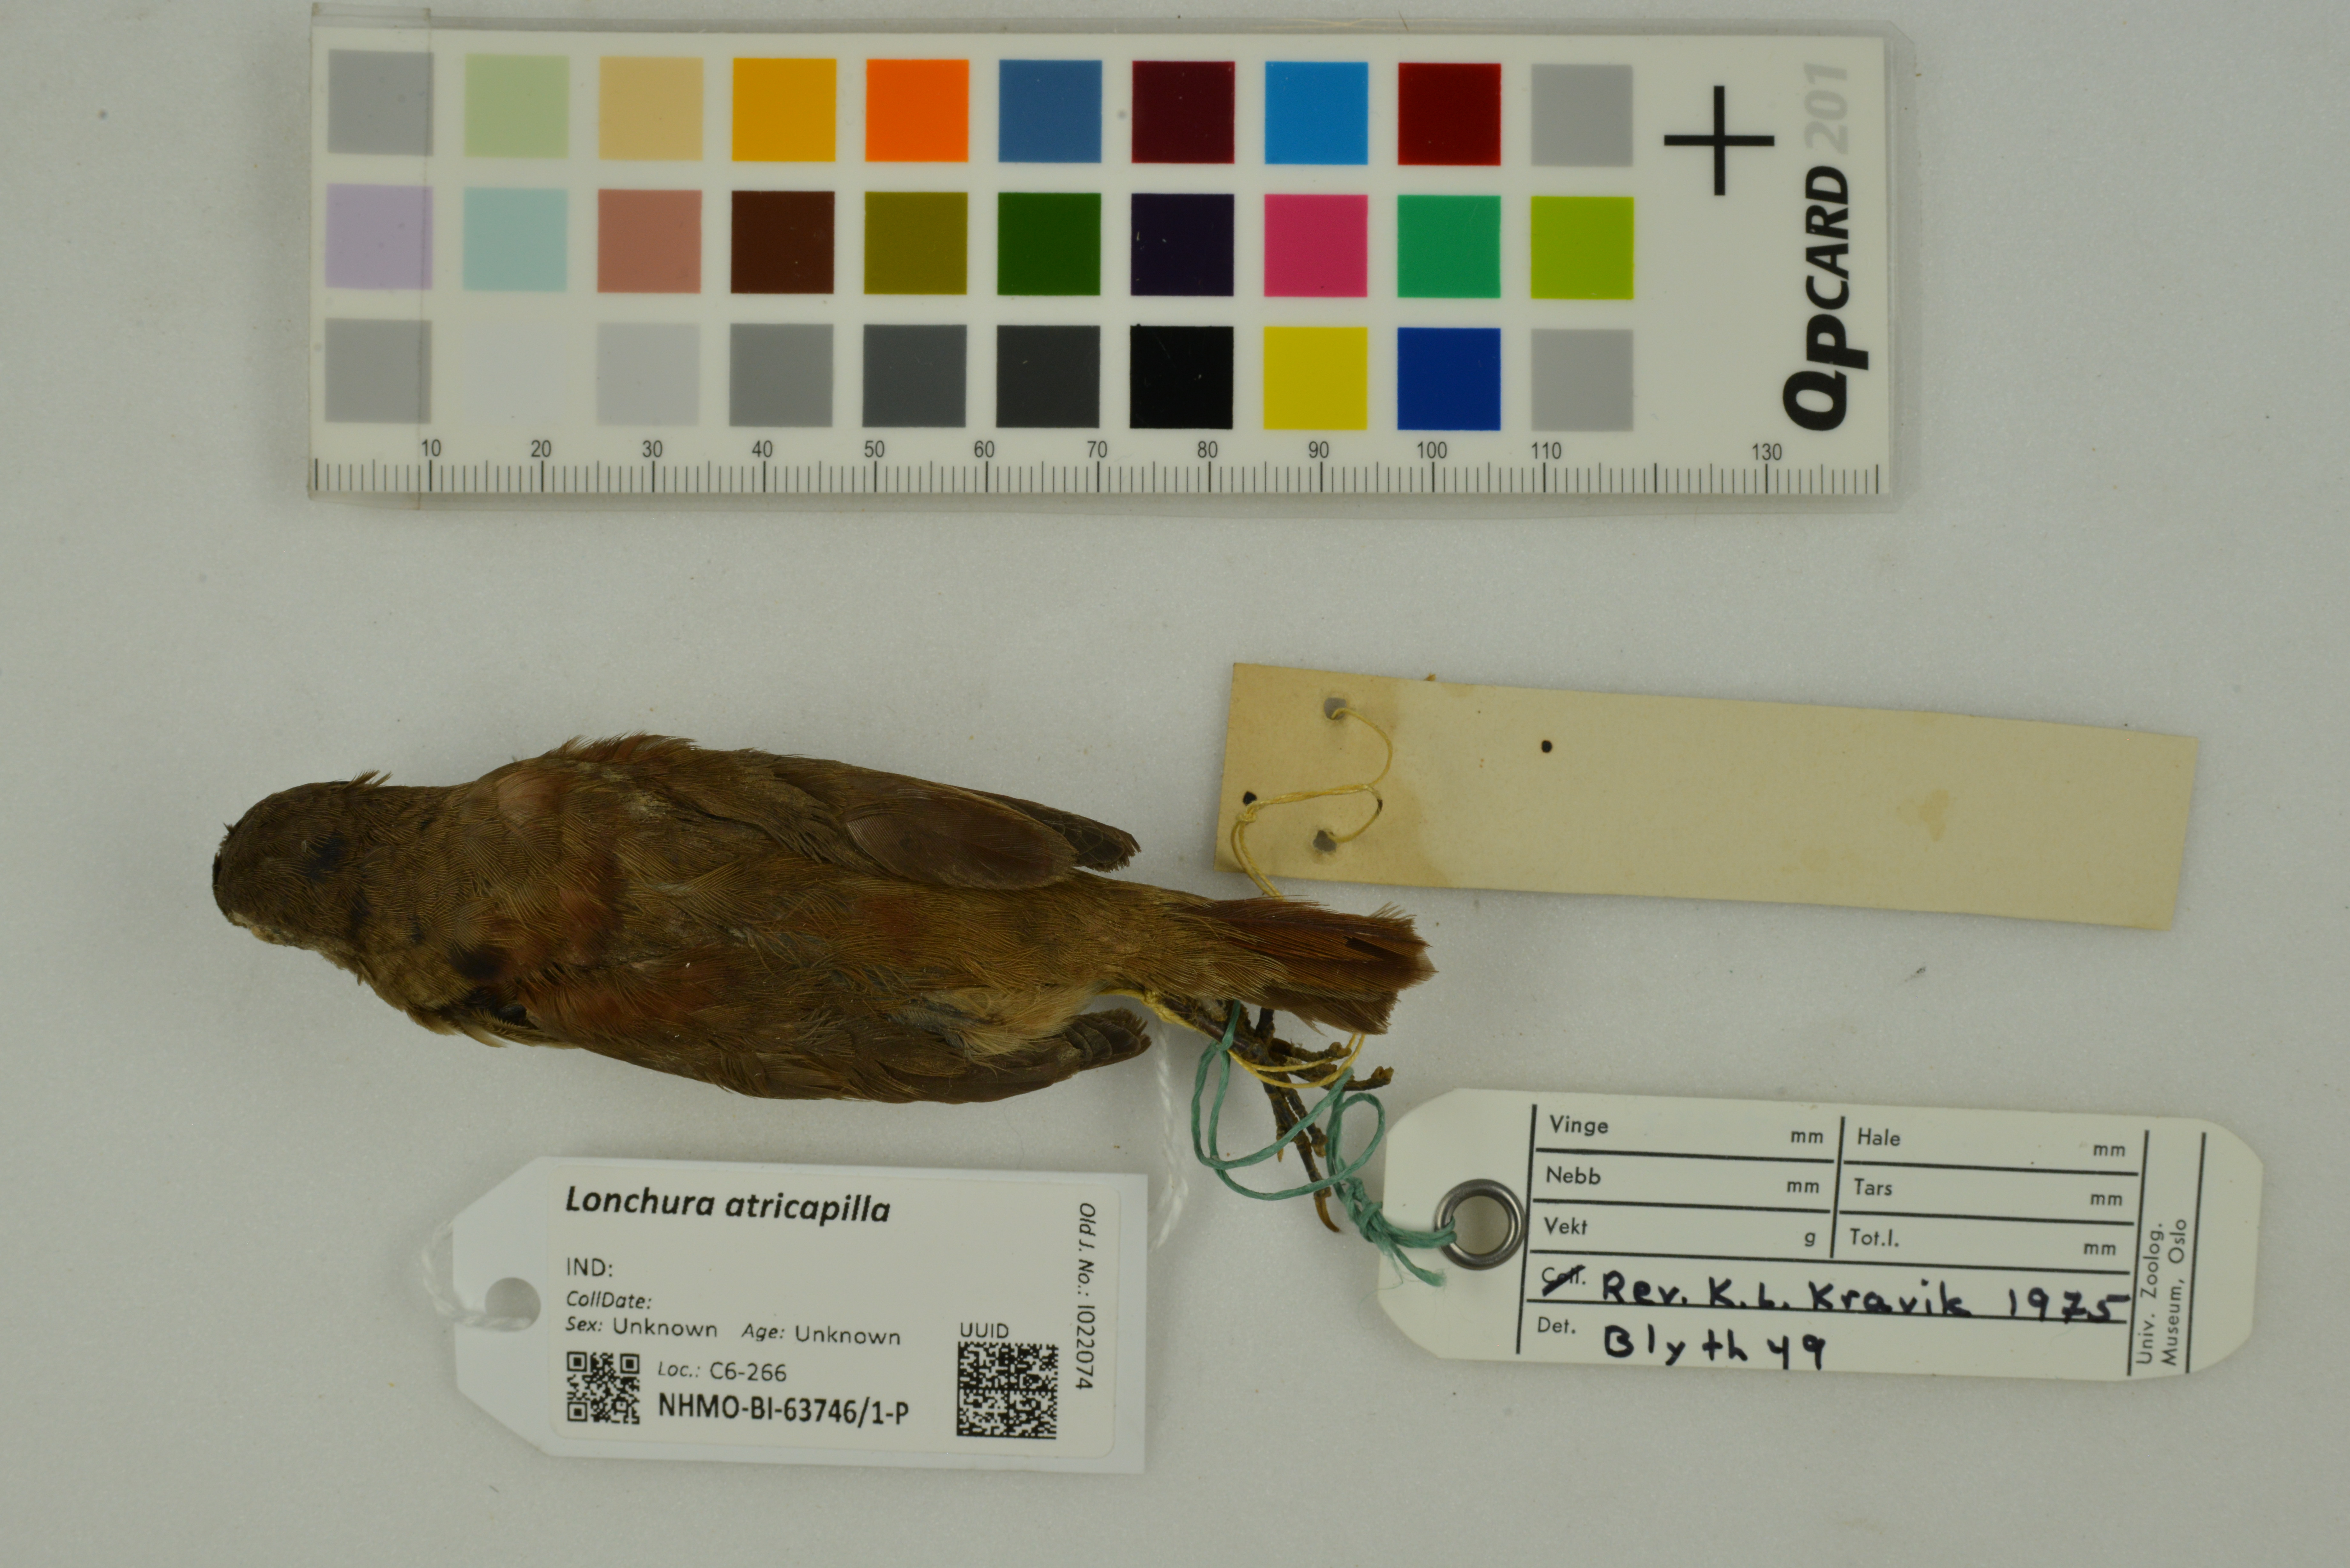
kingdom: Animalia
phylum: Chordata
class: Aves
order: Passeriformes
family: Estrildidae
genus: Lonchura
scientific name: Lonchura atricapilla
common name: Chestnut munia
